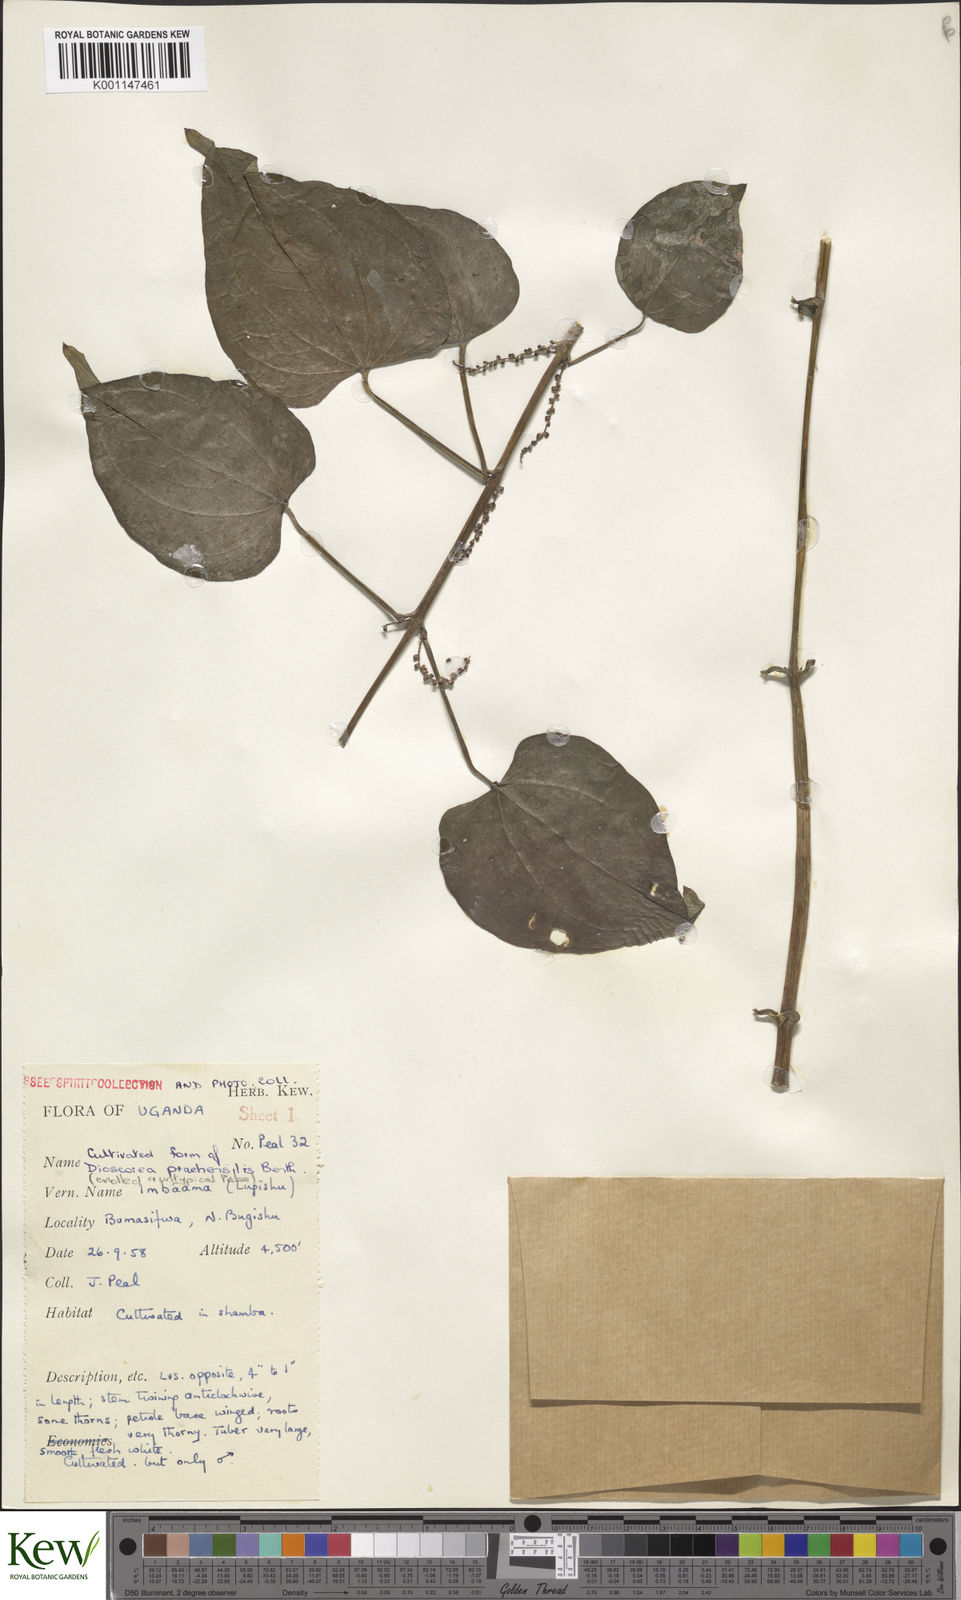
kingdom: Plantae
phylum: Tracheophyta
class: Liliopsida
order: Dioscoreales
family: Dioscoreaceae
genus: Dioscorea
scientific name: Dioscorea
